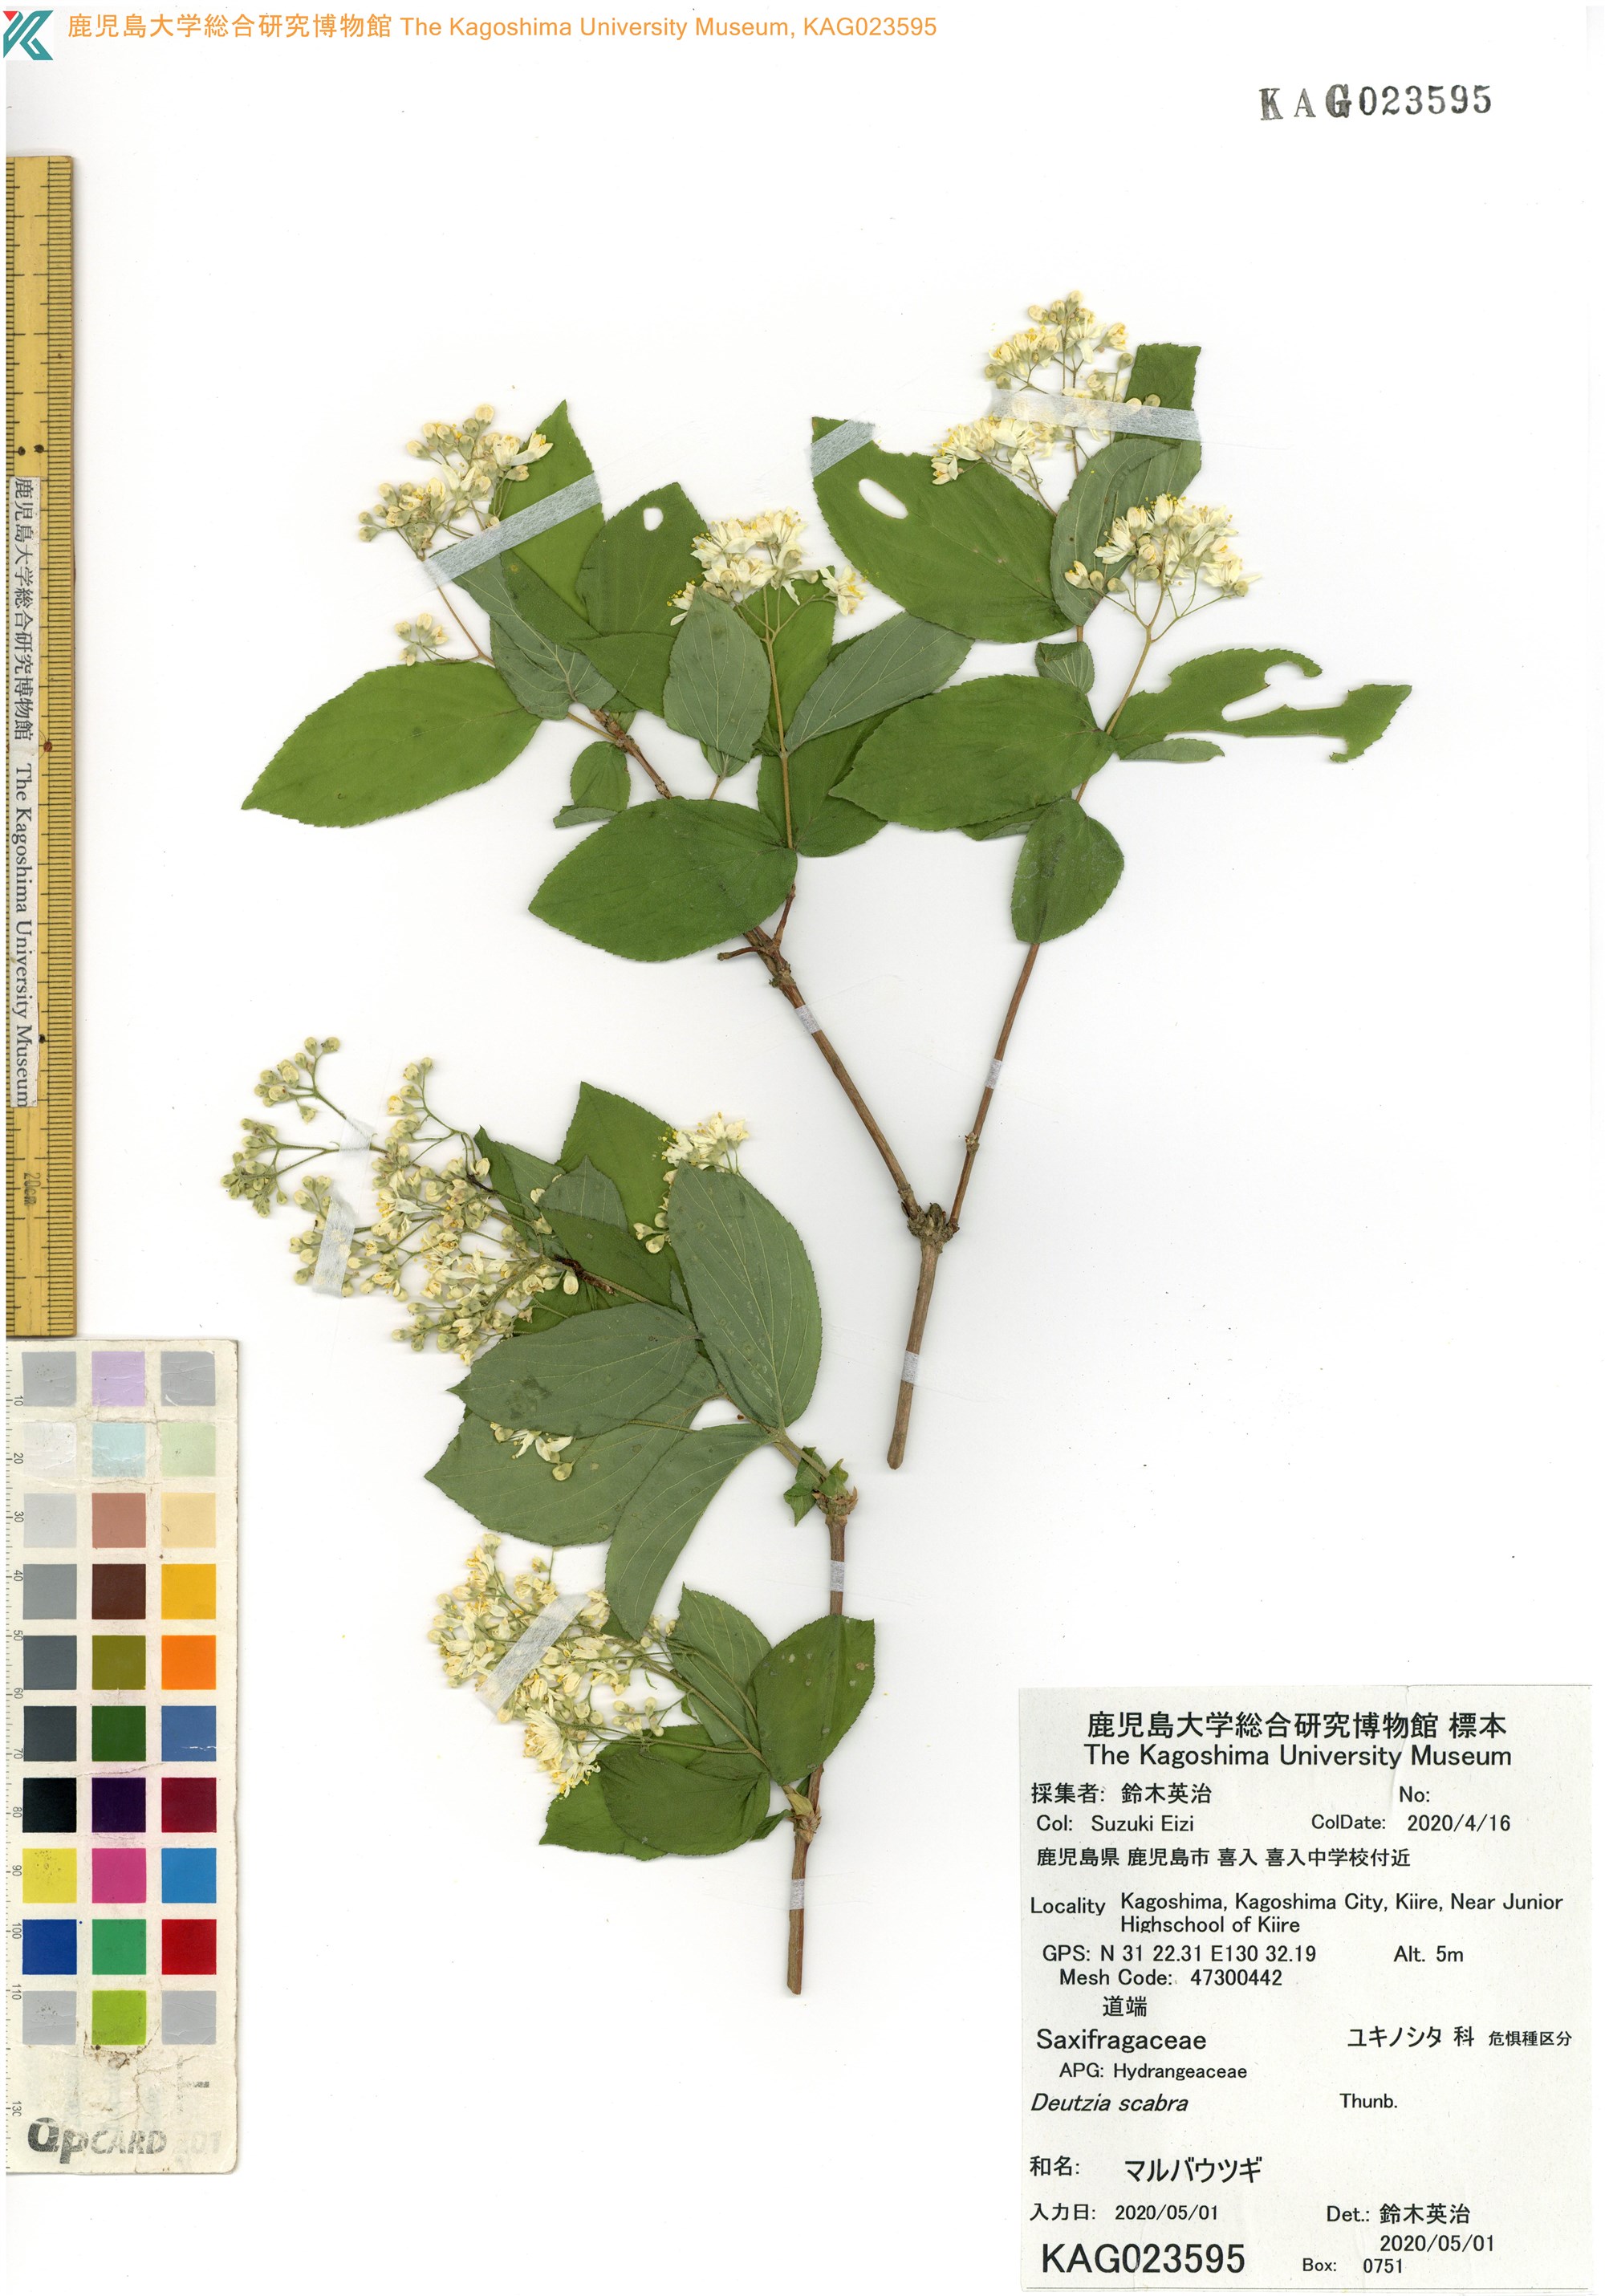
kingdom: Plantae
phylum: Tracheophyta
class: Magnoliopsida
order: Cornales
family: Hydrangeaceae
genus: Deutzia
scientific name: Deutzia scabra
